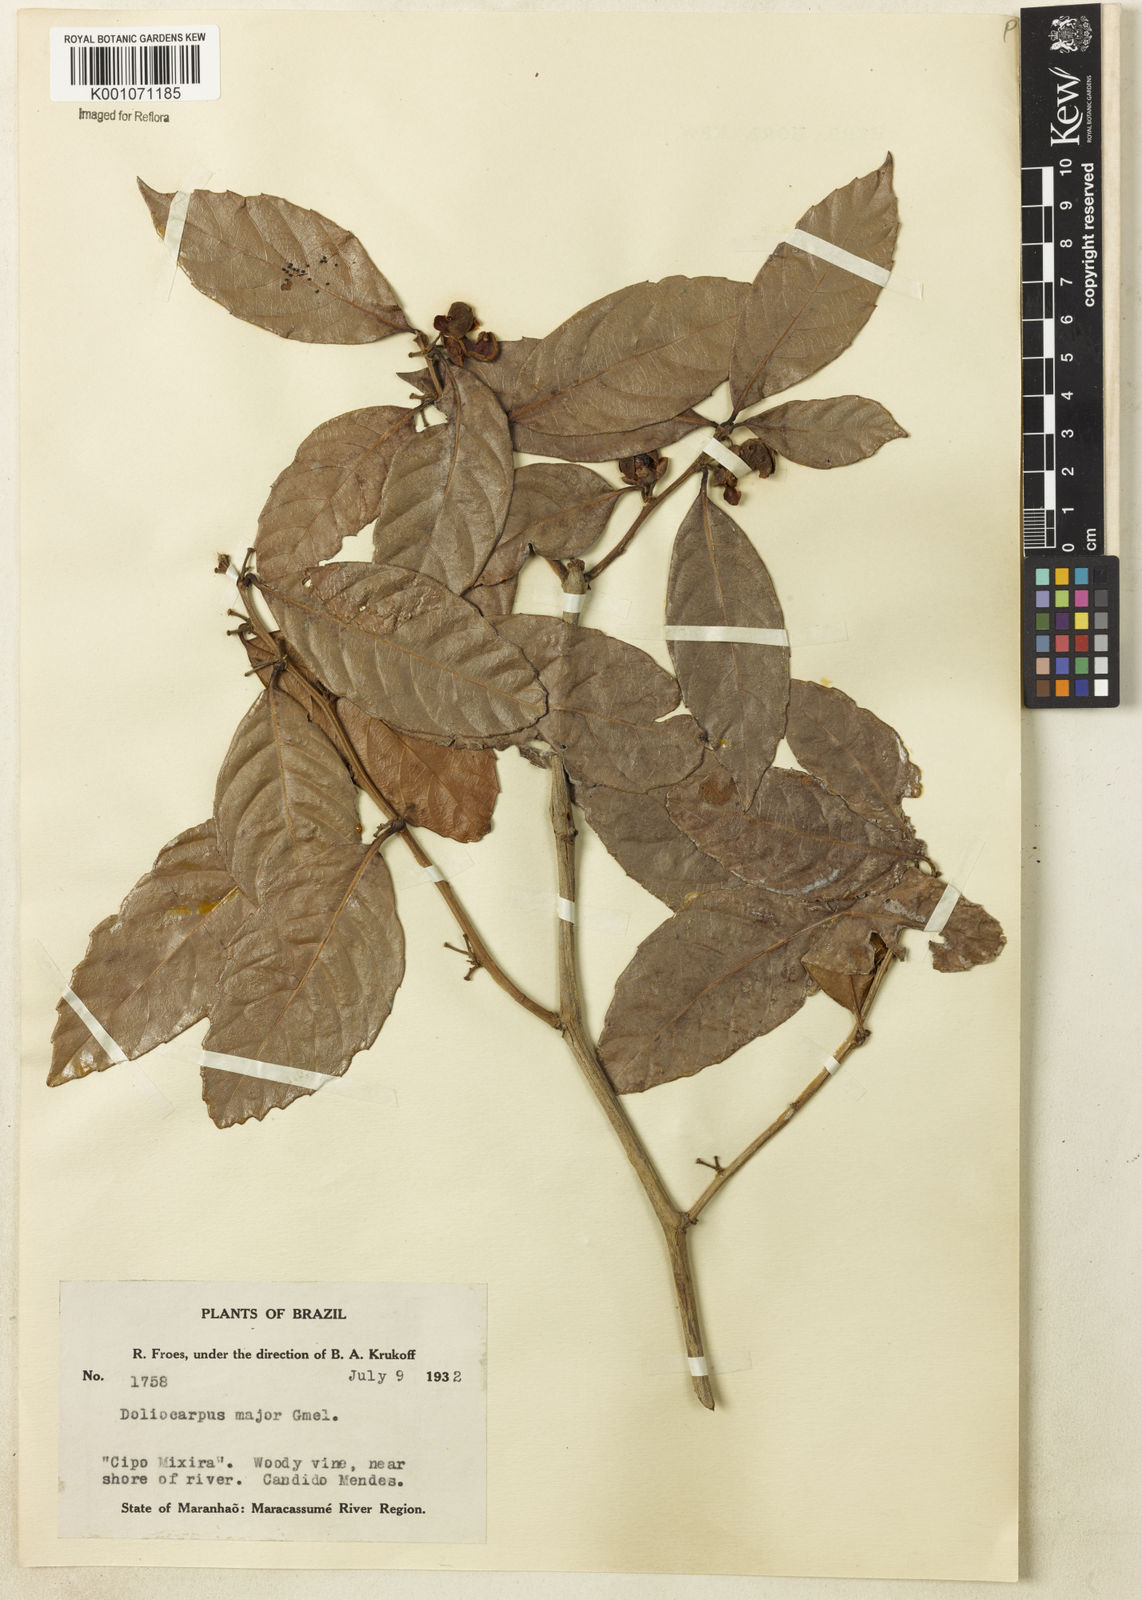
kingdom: Plantae
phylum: Tracheophyta
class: Magnoliopsida
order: Dilleniales
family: Dilleniaceae
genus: Doliocarpus
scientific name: Doliocarpus major
